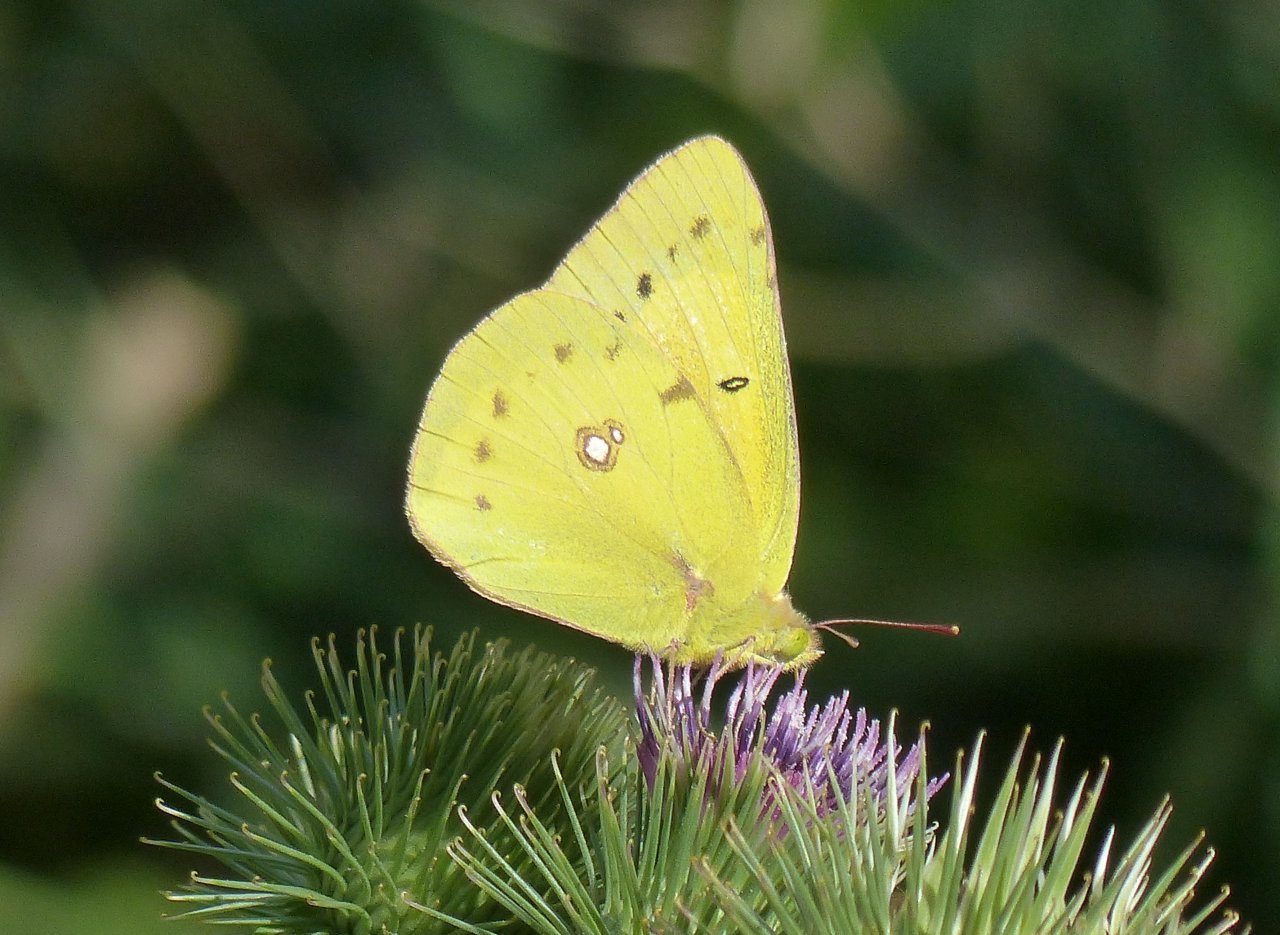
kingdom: Animalia
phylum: Arthropoda
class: Insecta
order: Lepidoptera
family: Pieridae
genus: Colias
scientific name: Colias philodice
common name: Clouded Sulphur
